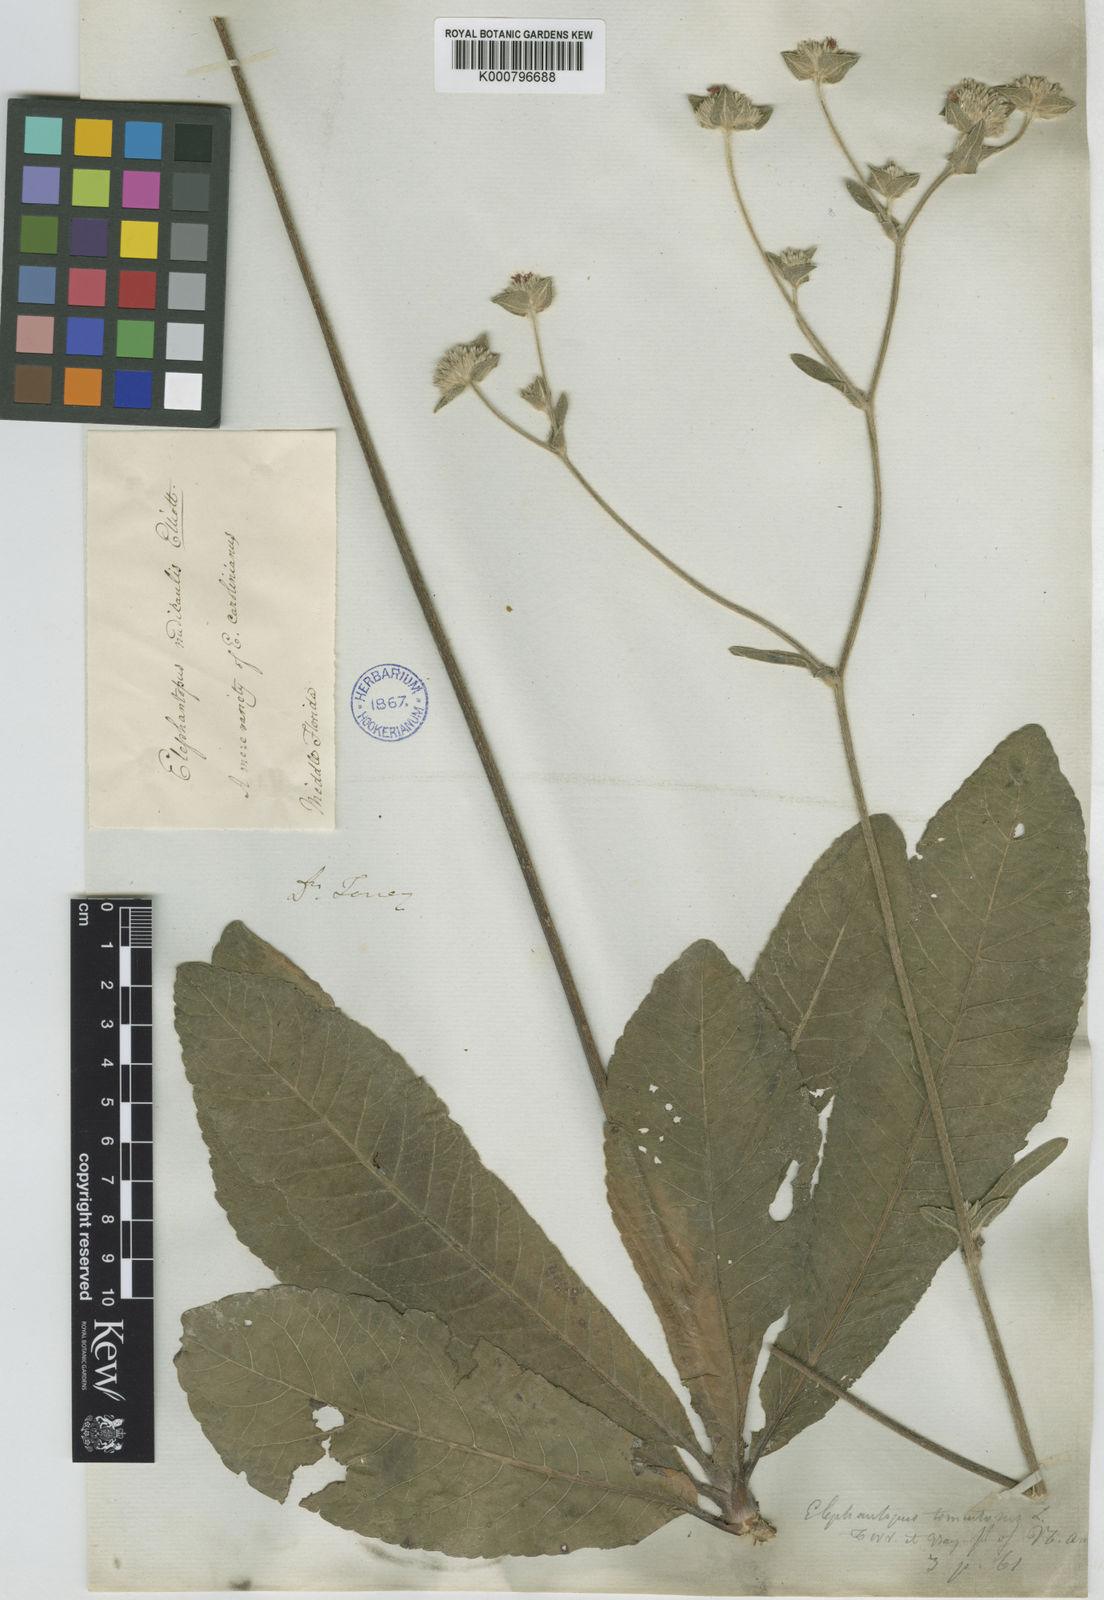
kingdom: Plantae
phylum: Tracheophyta
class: Magnoliopsida
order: Asterales
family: Asteraceae
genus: Elephantopus
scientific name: Elephantopus elatus
